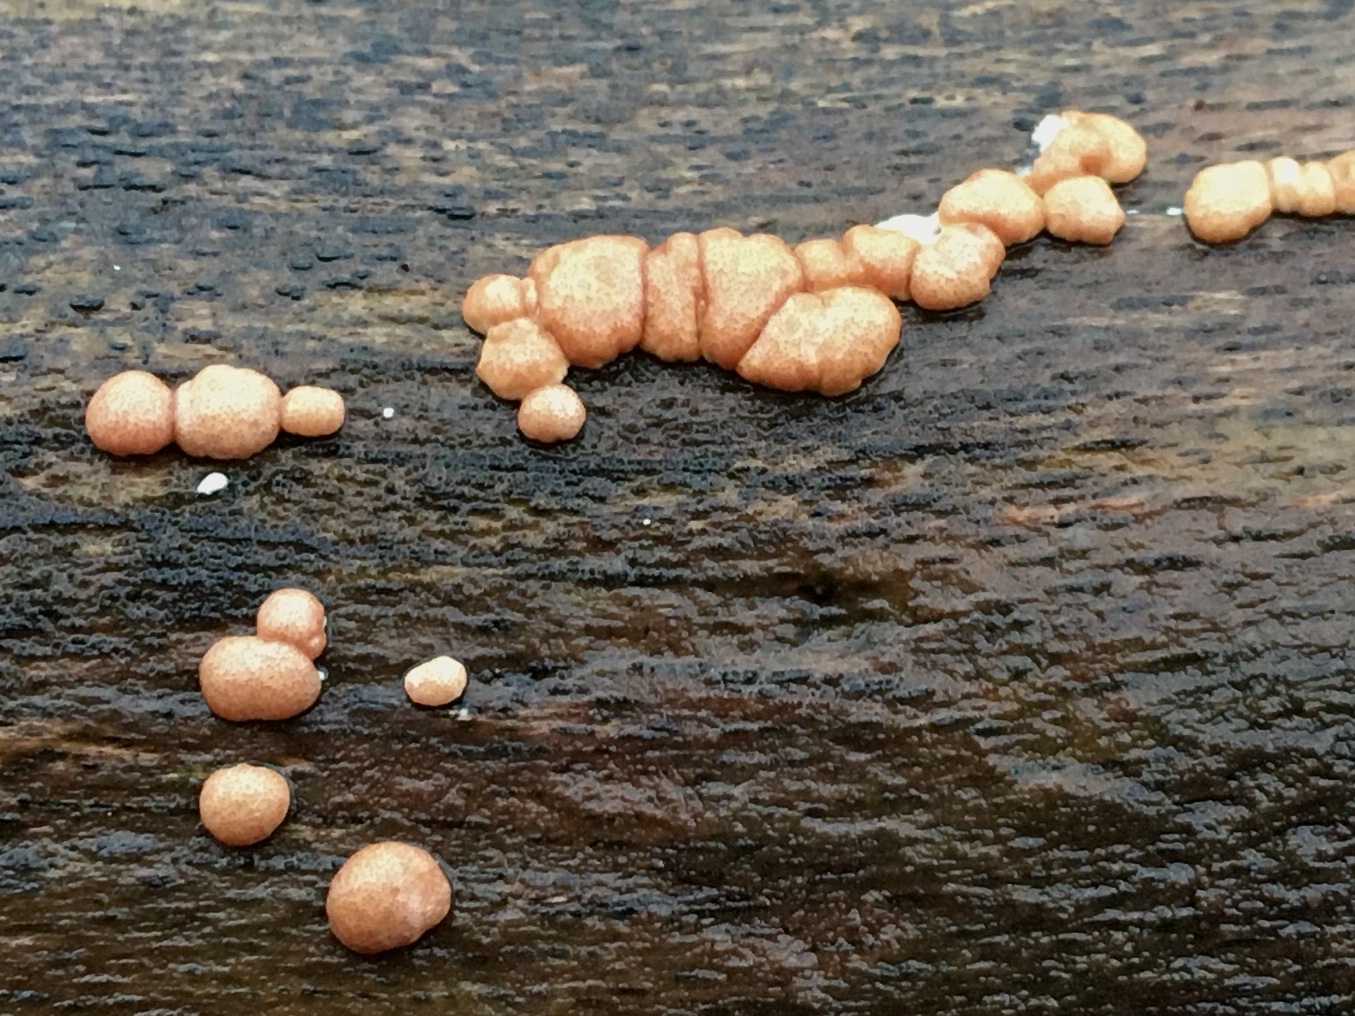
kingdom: Fungi
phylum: Ascomycota
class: Sordariomycetes
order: Hypocreales
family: Hypocreaceae
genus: Trichoderma
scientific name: Trichoderma europaeum
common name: rosabrun kødkerne
